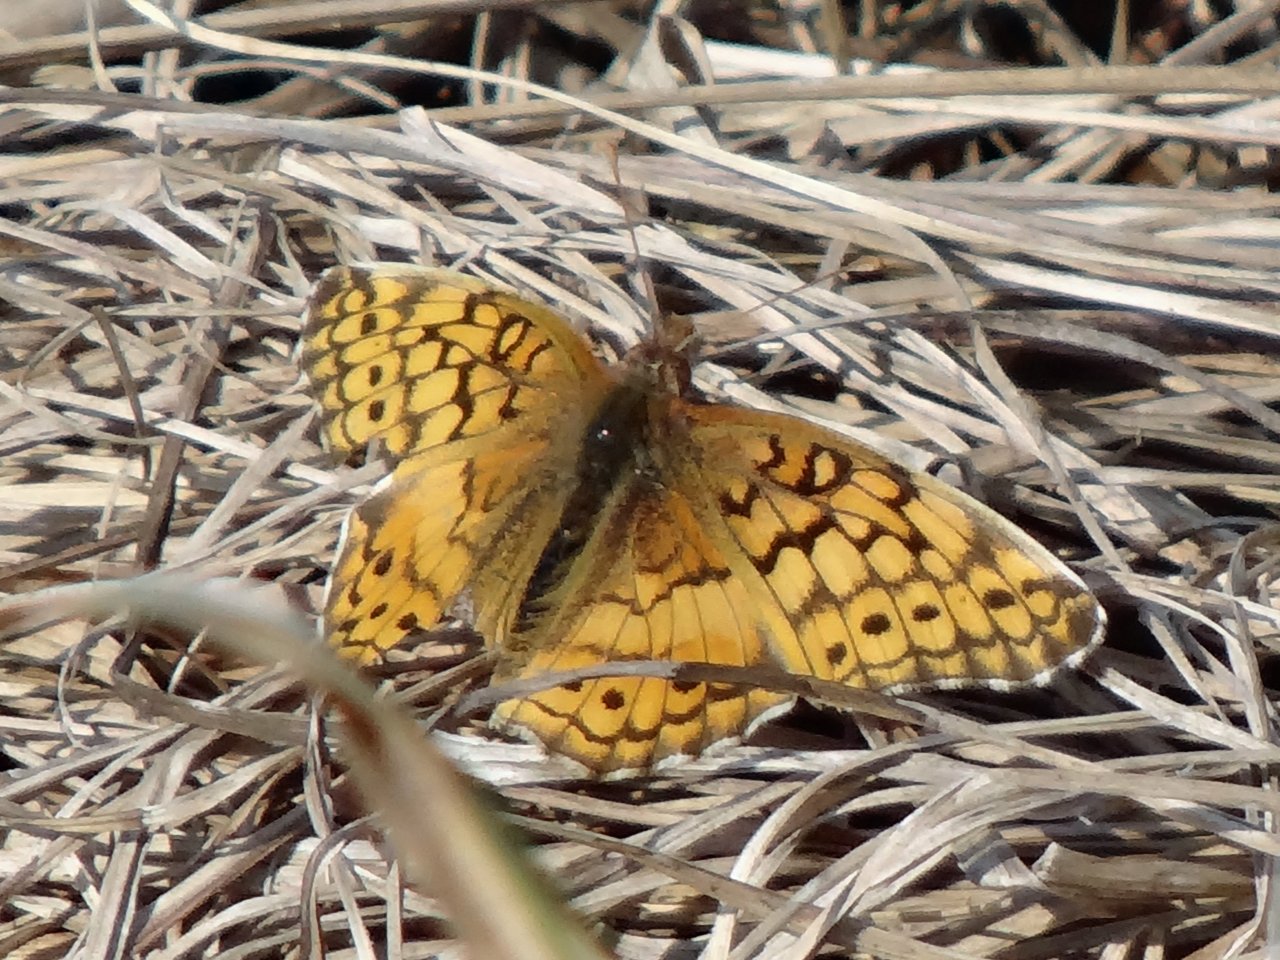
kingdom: Animalia
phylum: Arthropoda
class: Insecta
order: Lepidoptera
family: Nymphalidae
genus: Euptoieta
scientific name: Euptoieta claudia
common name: Variegated Fritillary
